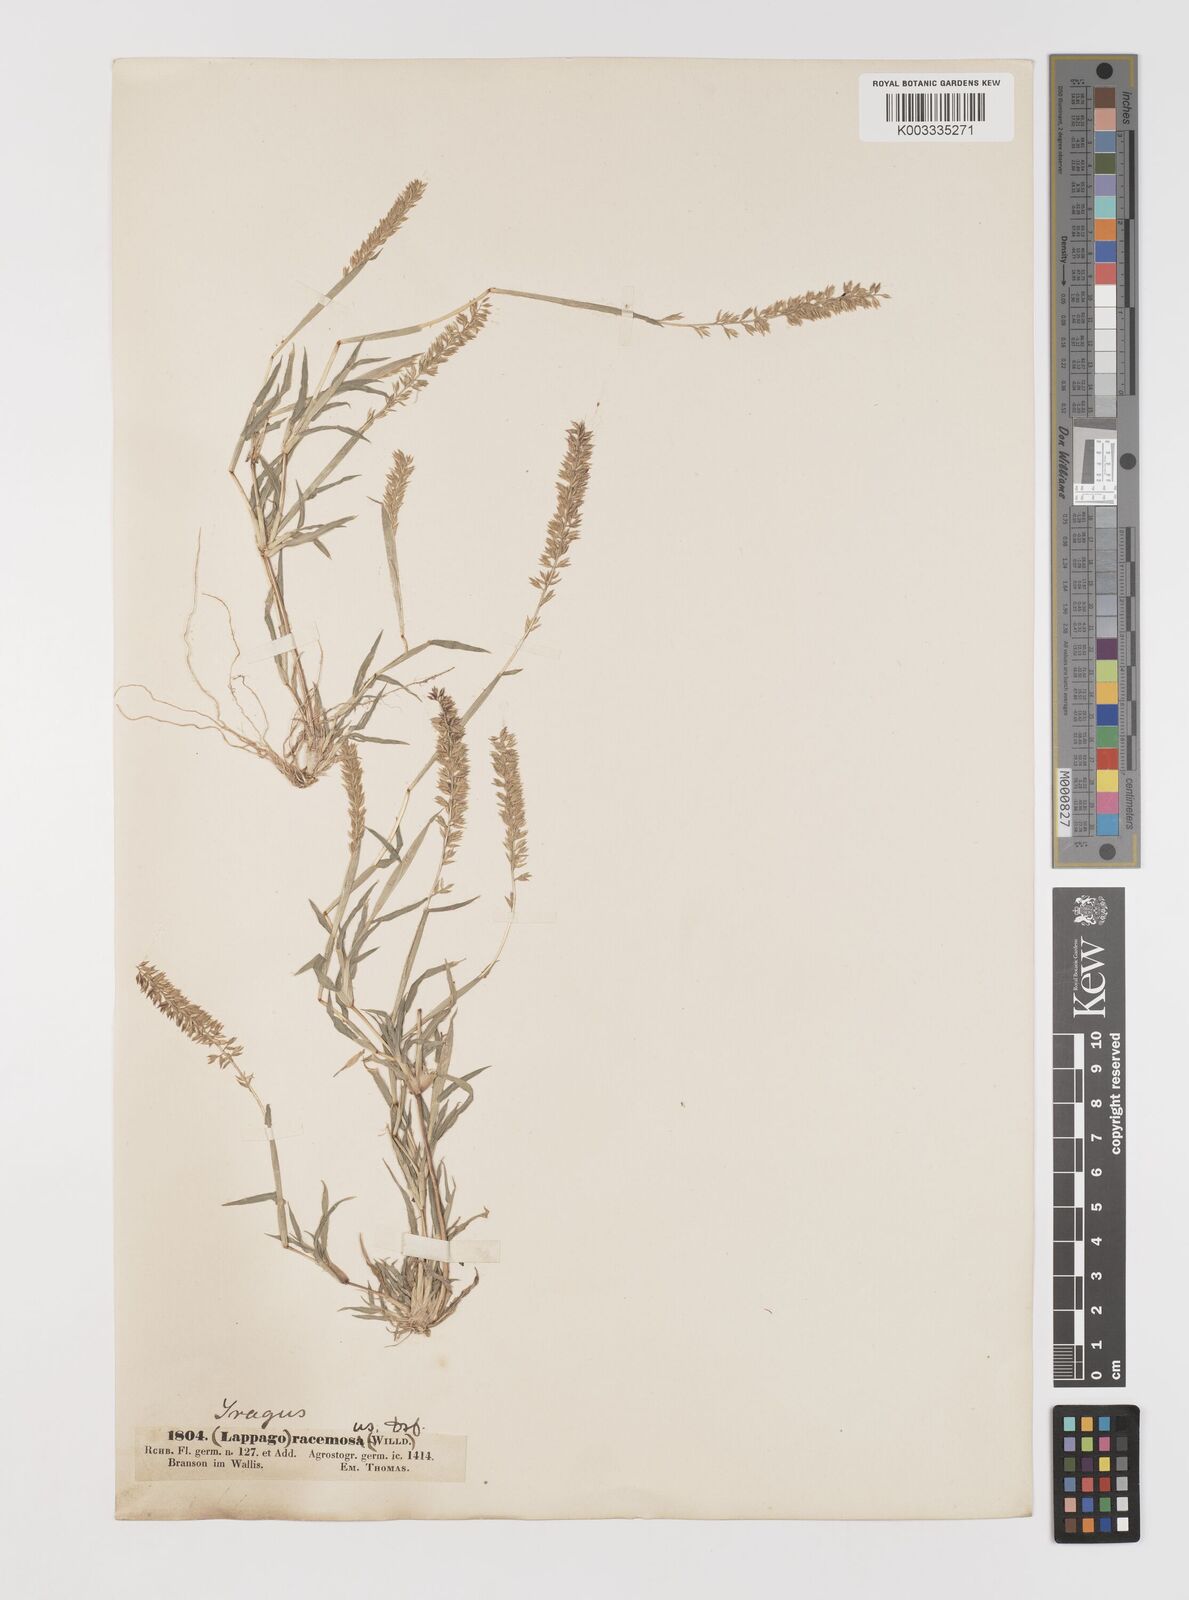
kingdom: Plantae
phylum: Tracheophyta
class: Liliopsida
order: Poales
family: Poaceae
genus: Tragus
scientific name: Tragus racemosus
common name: European bur-grass
